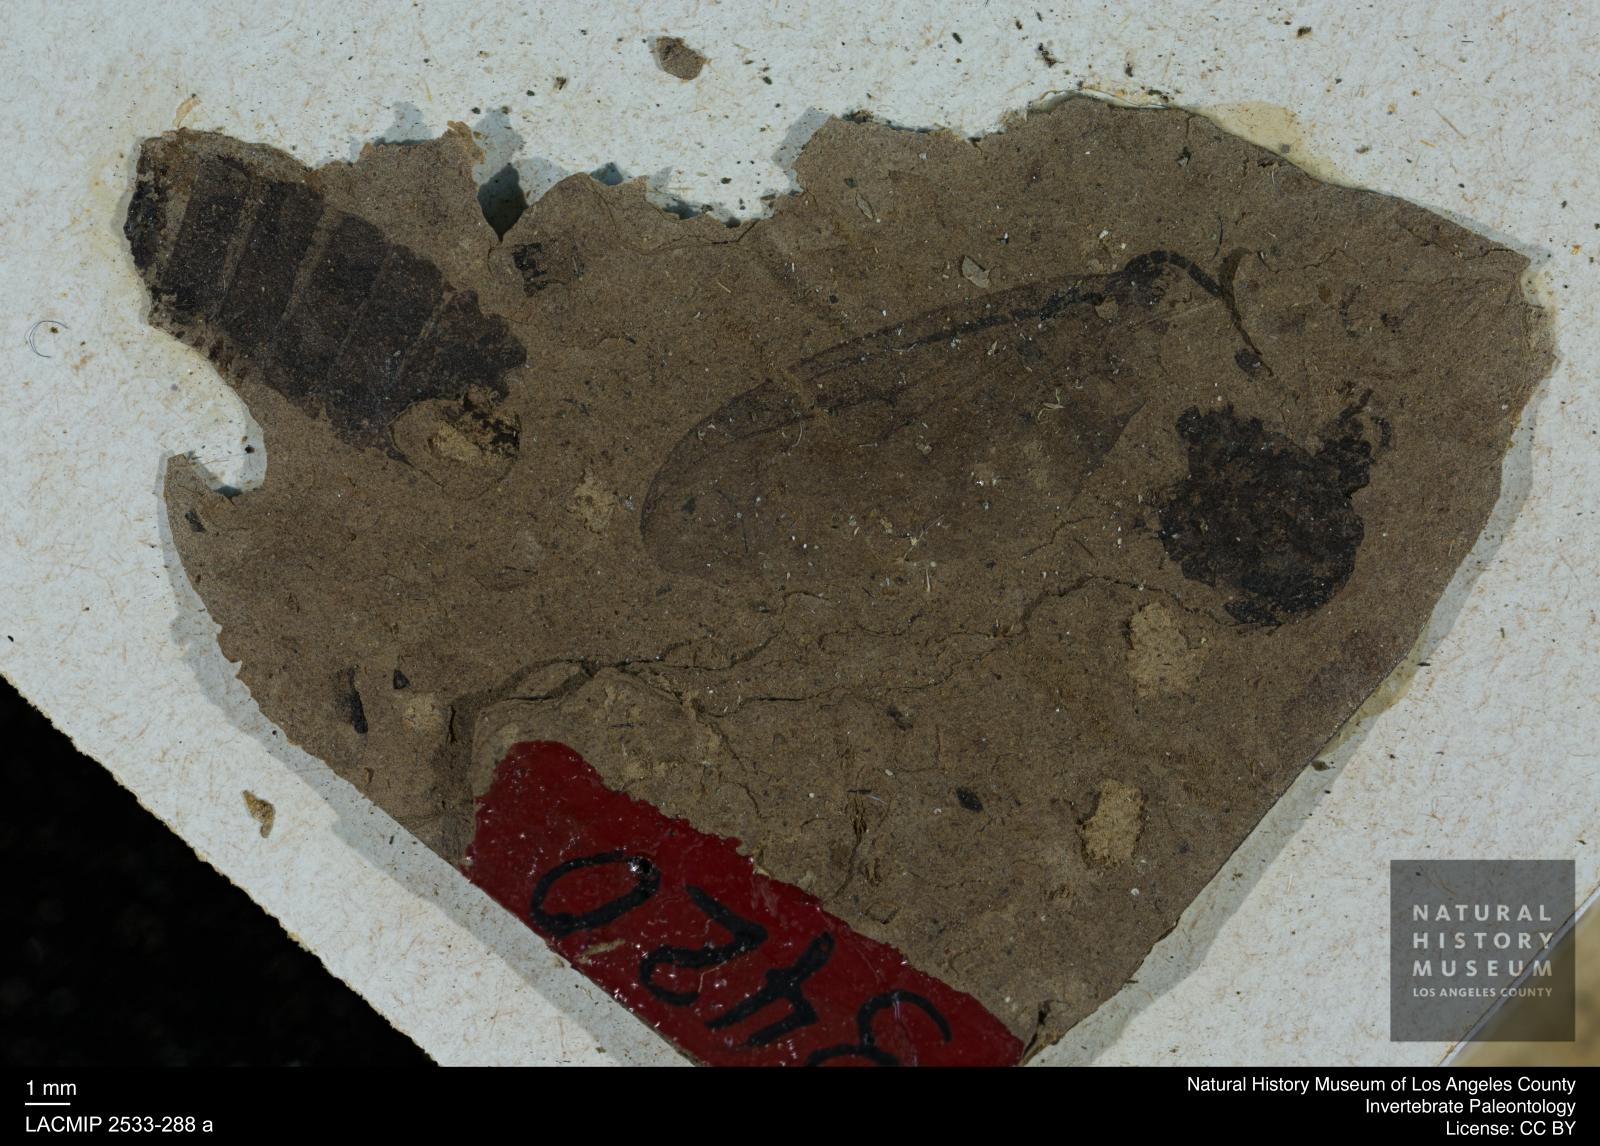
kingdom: Animalia
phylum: Arthropoda
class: Insecta
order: Diptera
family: Bibionidae
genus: Plecia
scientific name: Plecia dubia
